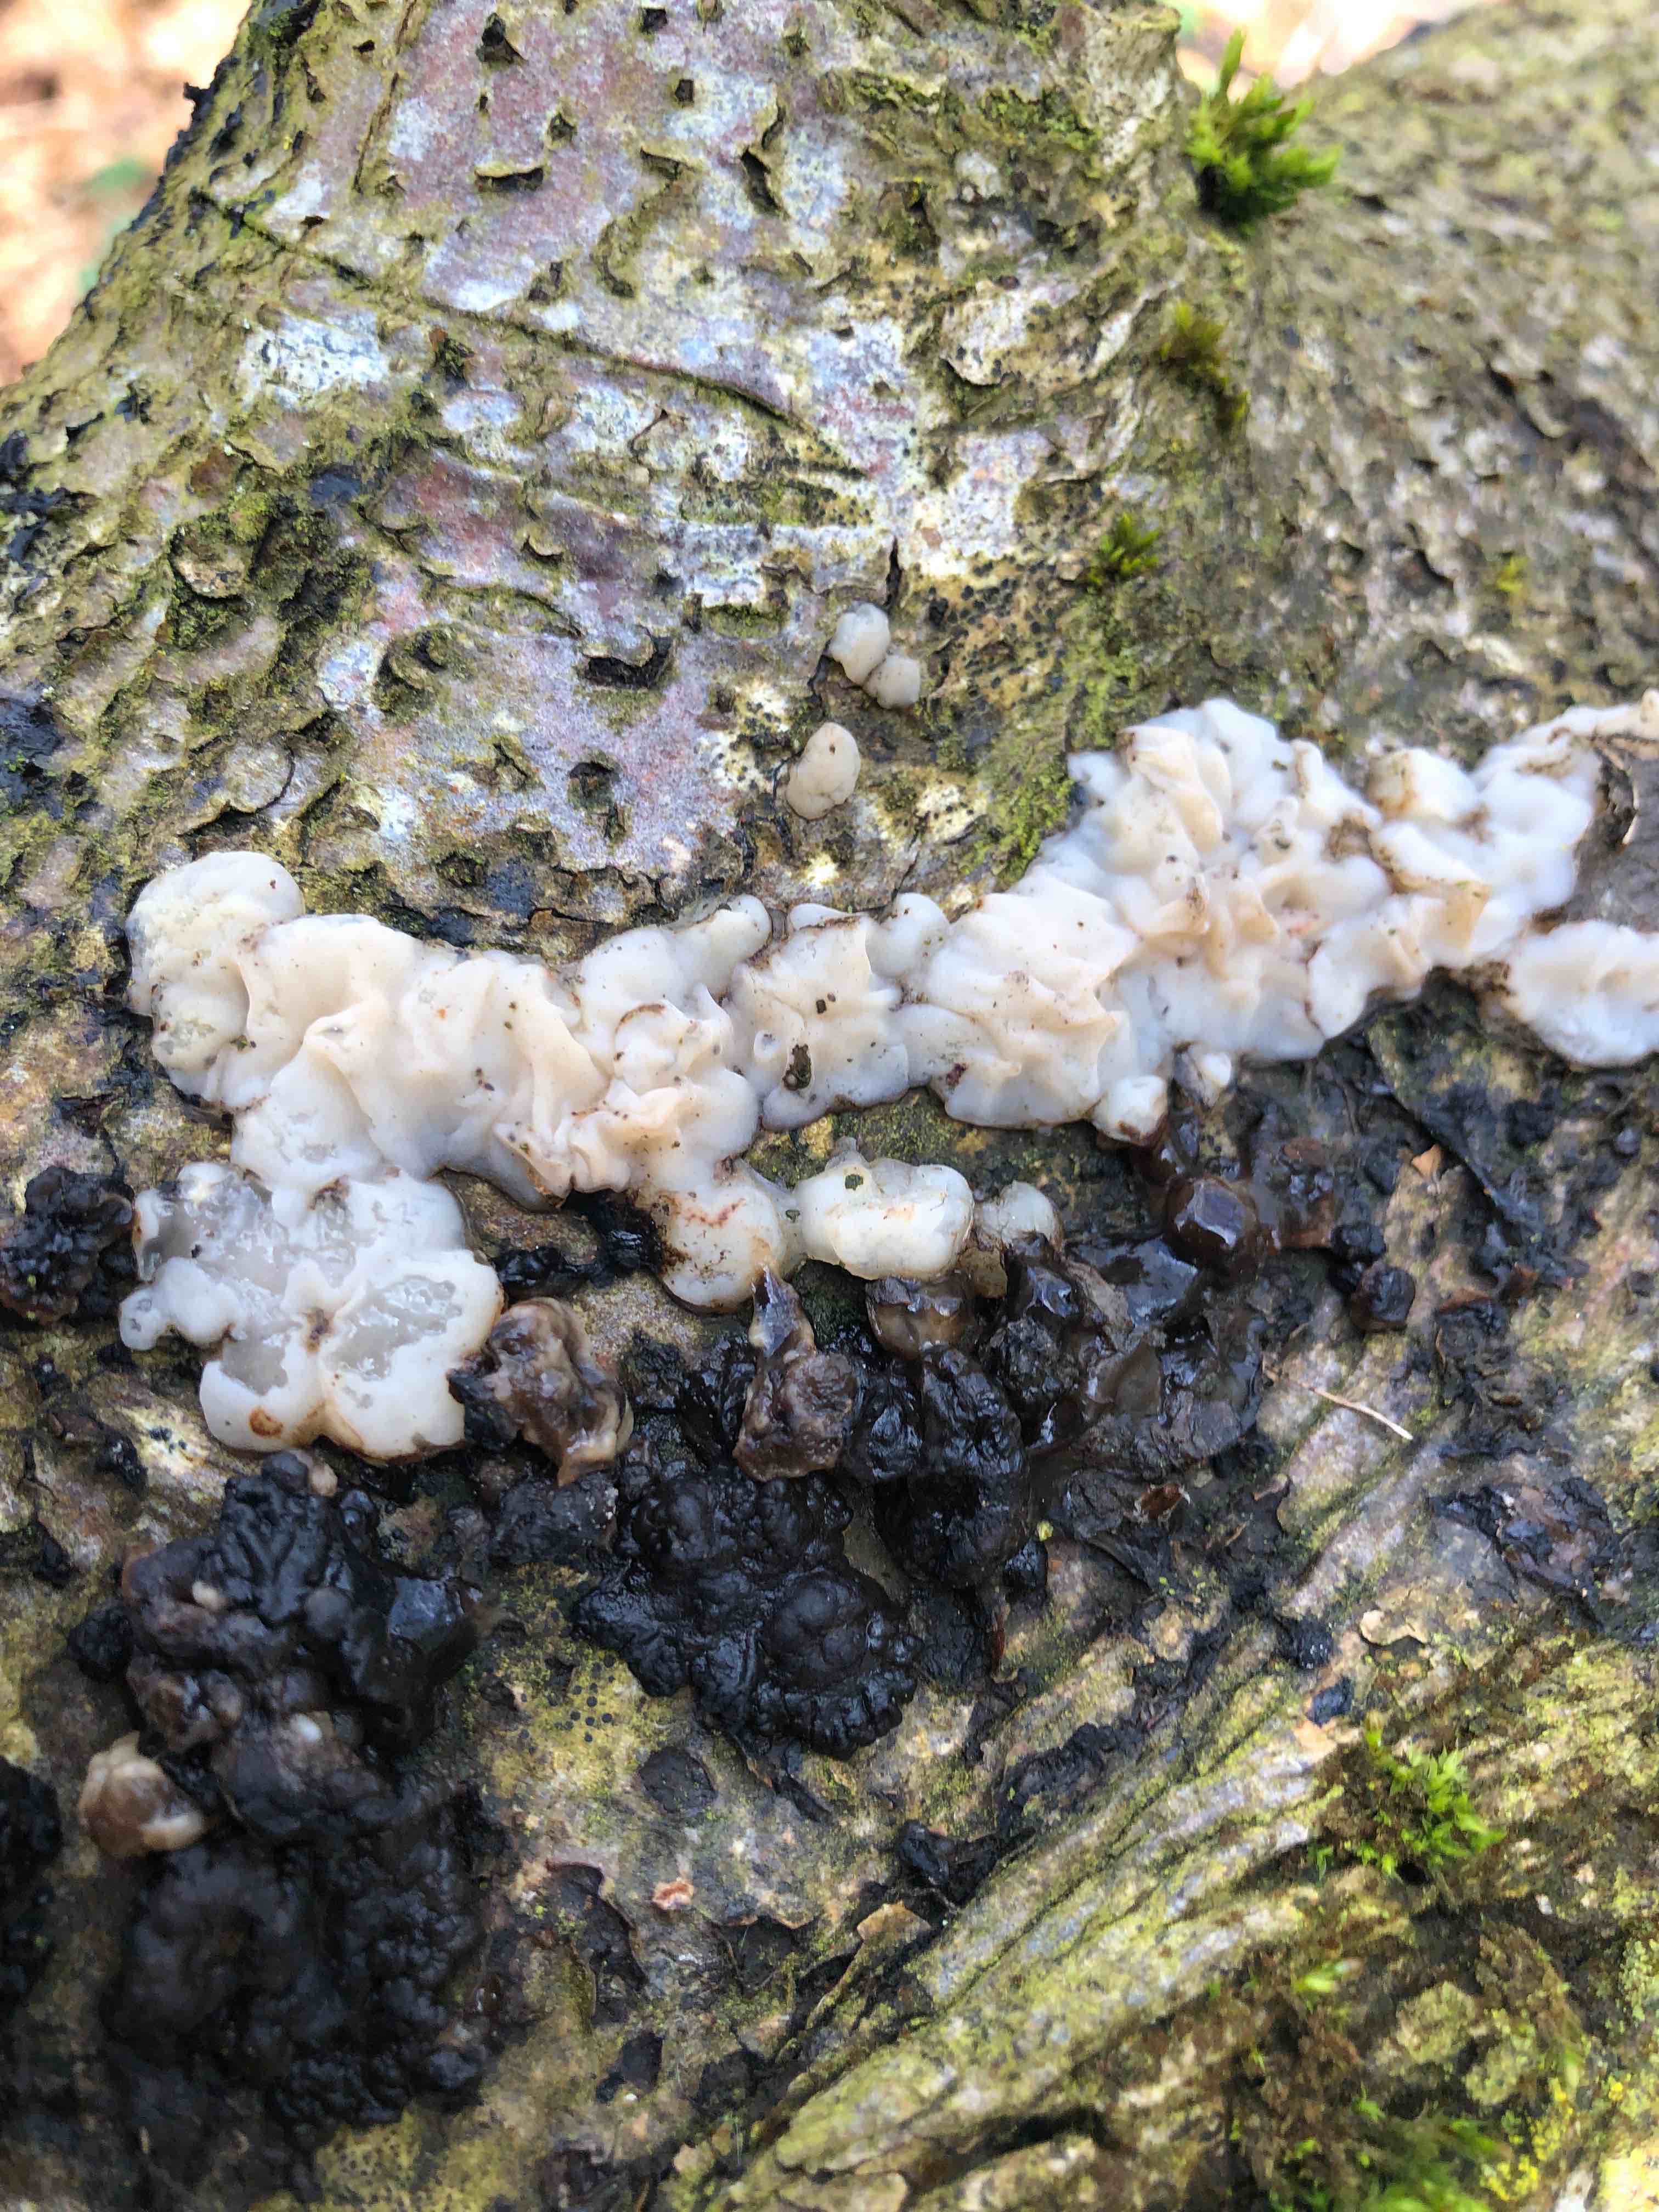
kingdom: Fungi
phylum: Basidiomycota
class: Agaricomycetes
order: Auriculariales
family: Auriculariaceae
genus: Exidia
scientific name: Exidia thuretiana
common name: hvidlig bævretop
